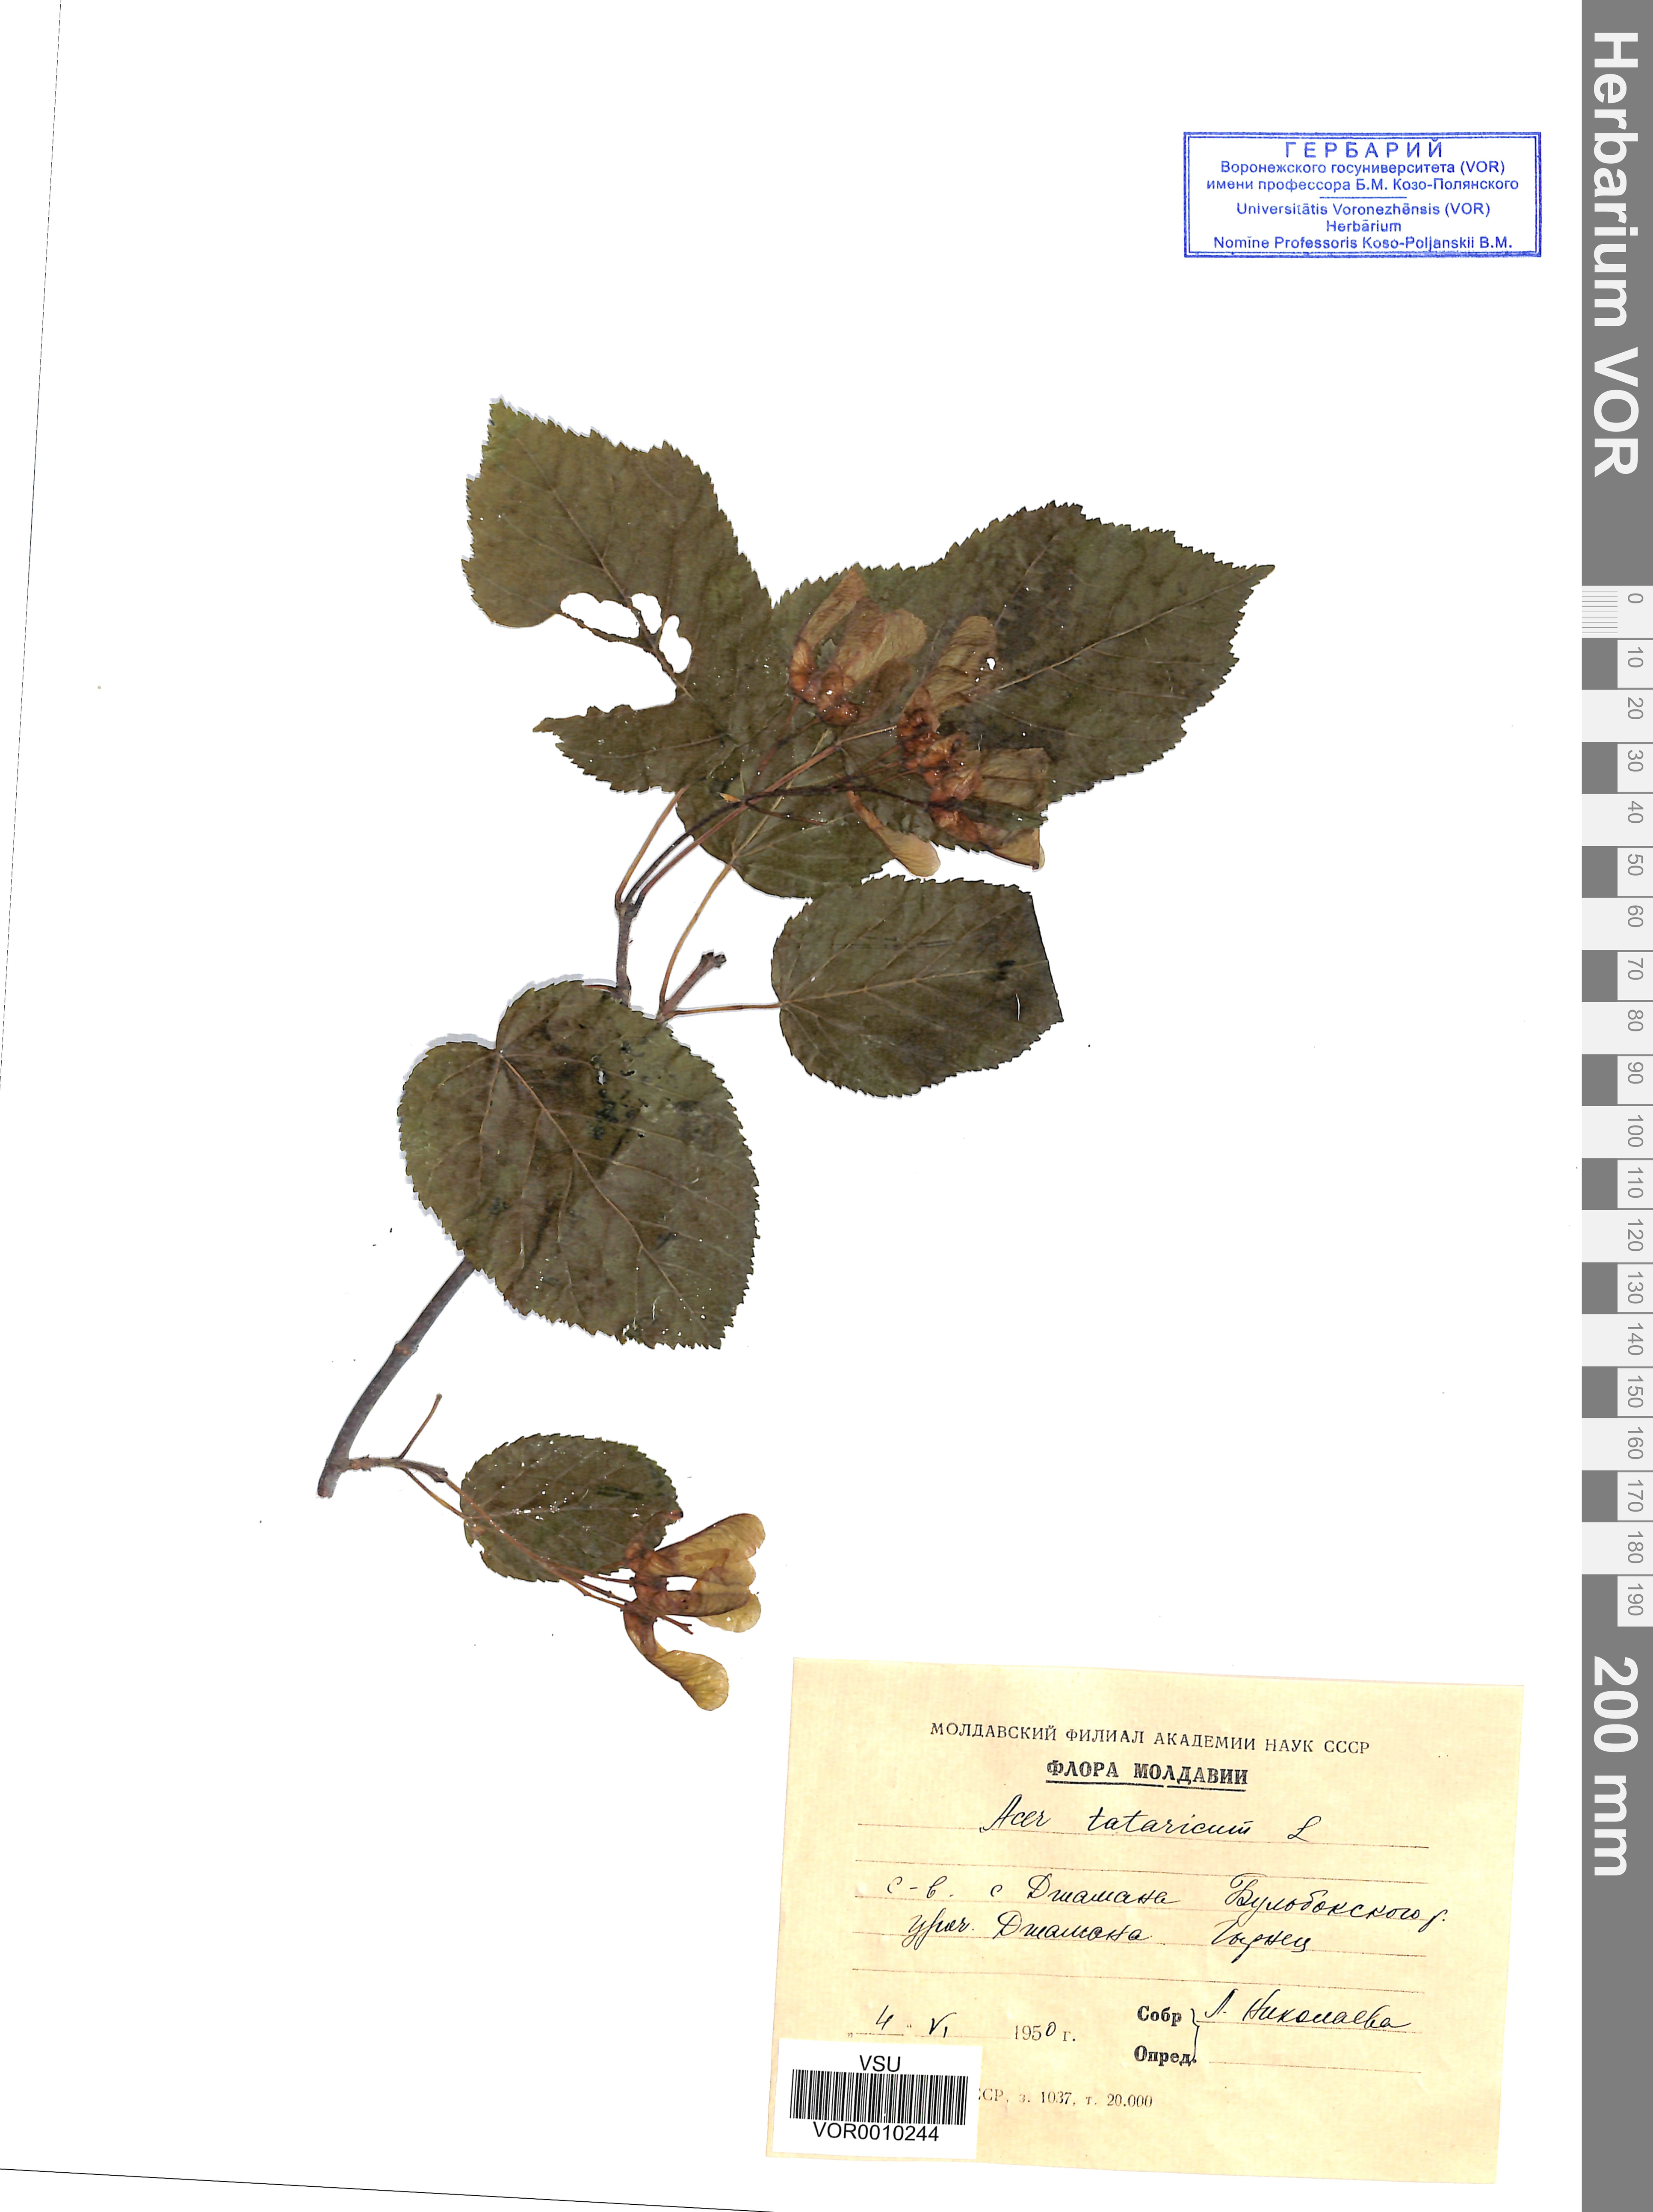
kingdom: Plantae
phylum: Tracheophyta
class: Magnoliopsida
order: Sapindales
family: Sapindaceae
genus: Acer
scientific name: Acer tataricum
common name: Tartar maple
